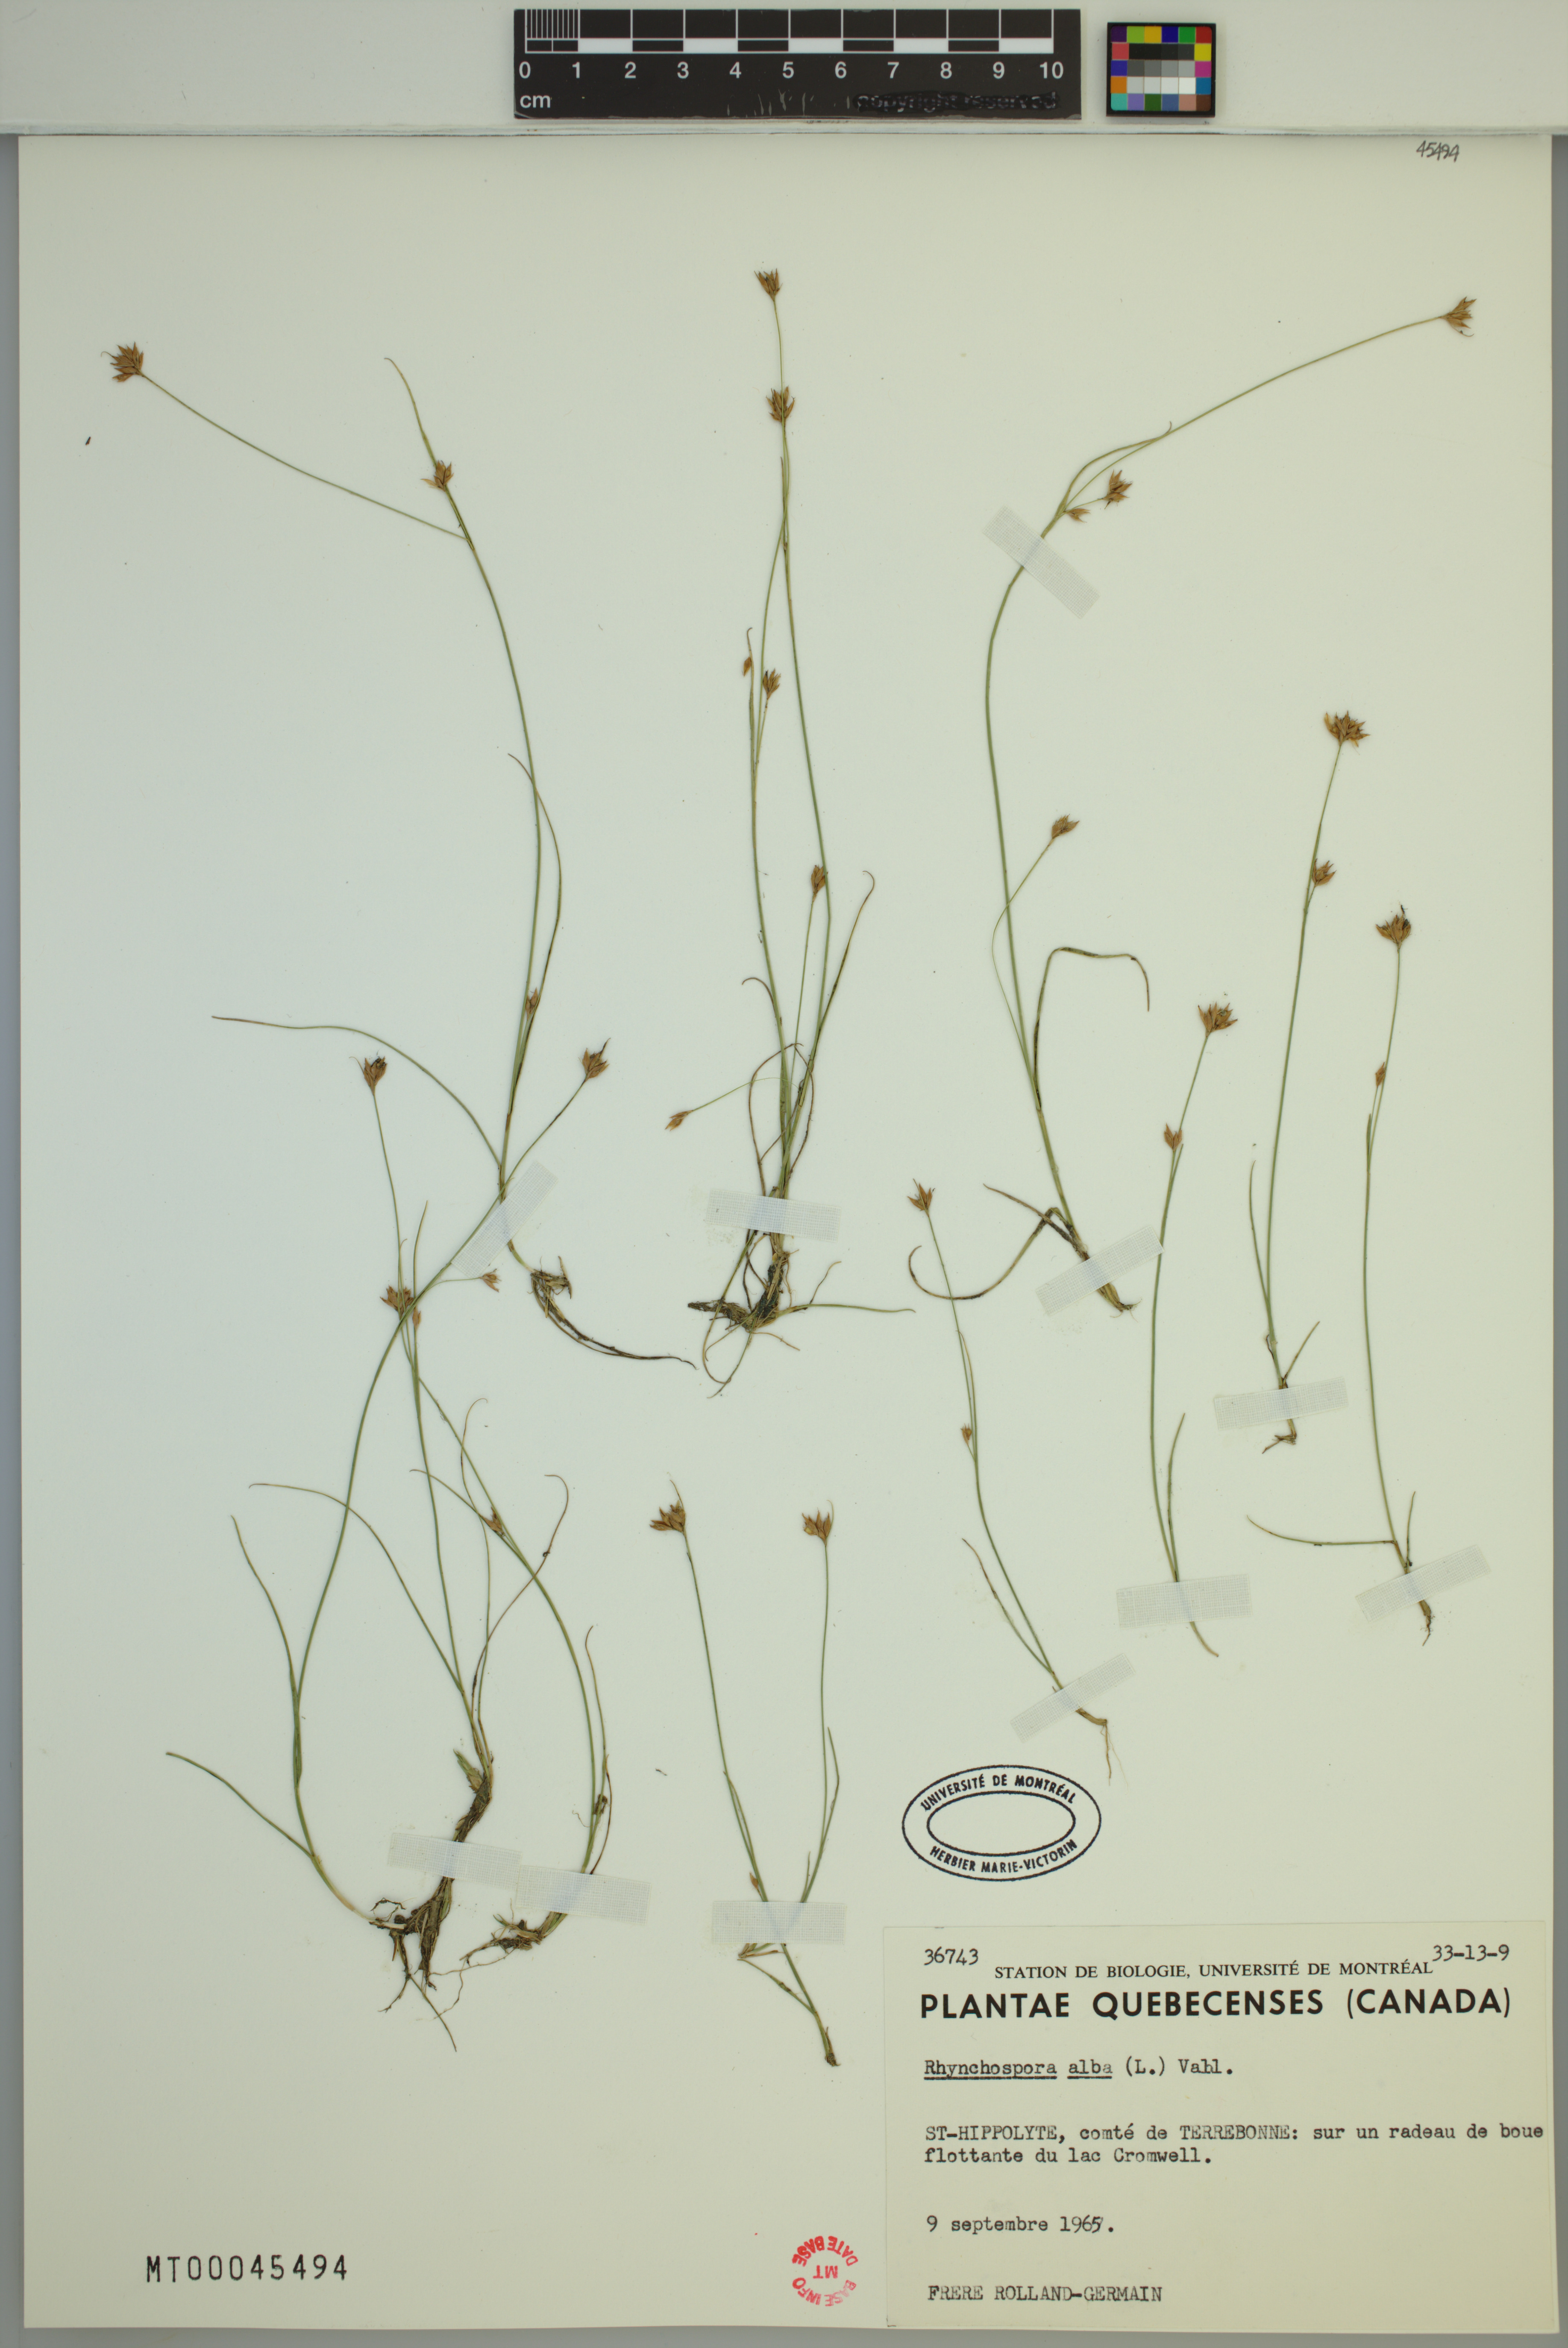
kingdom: Plantae
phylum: Tracheophyta
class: Liliopsida
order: Poales
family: Cyperaceae
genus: Rhynchospora
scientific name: Rhynchospora alba
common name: White beak-sedge
